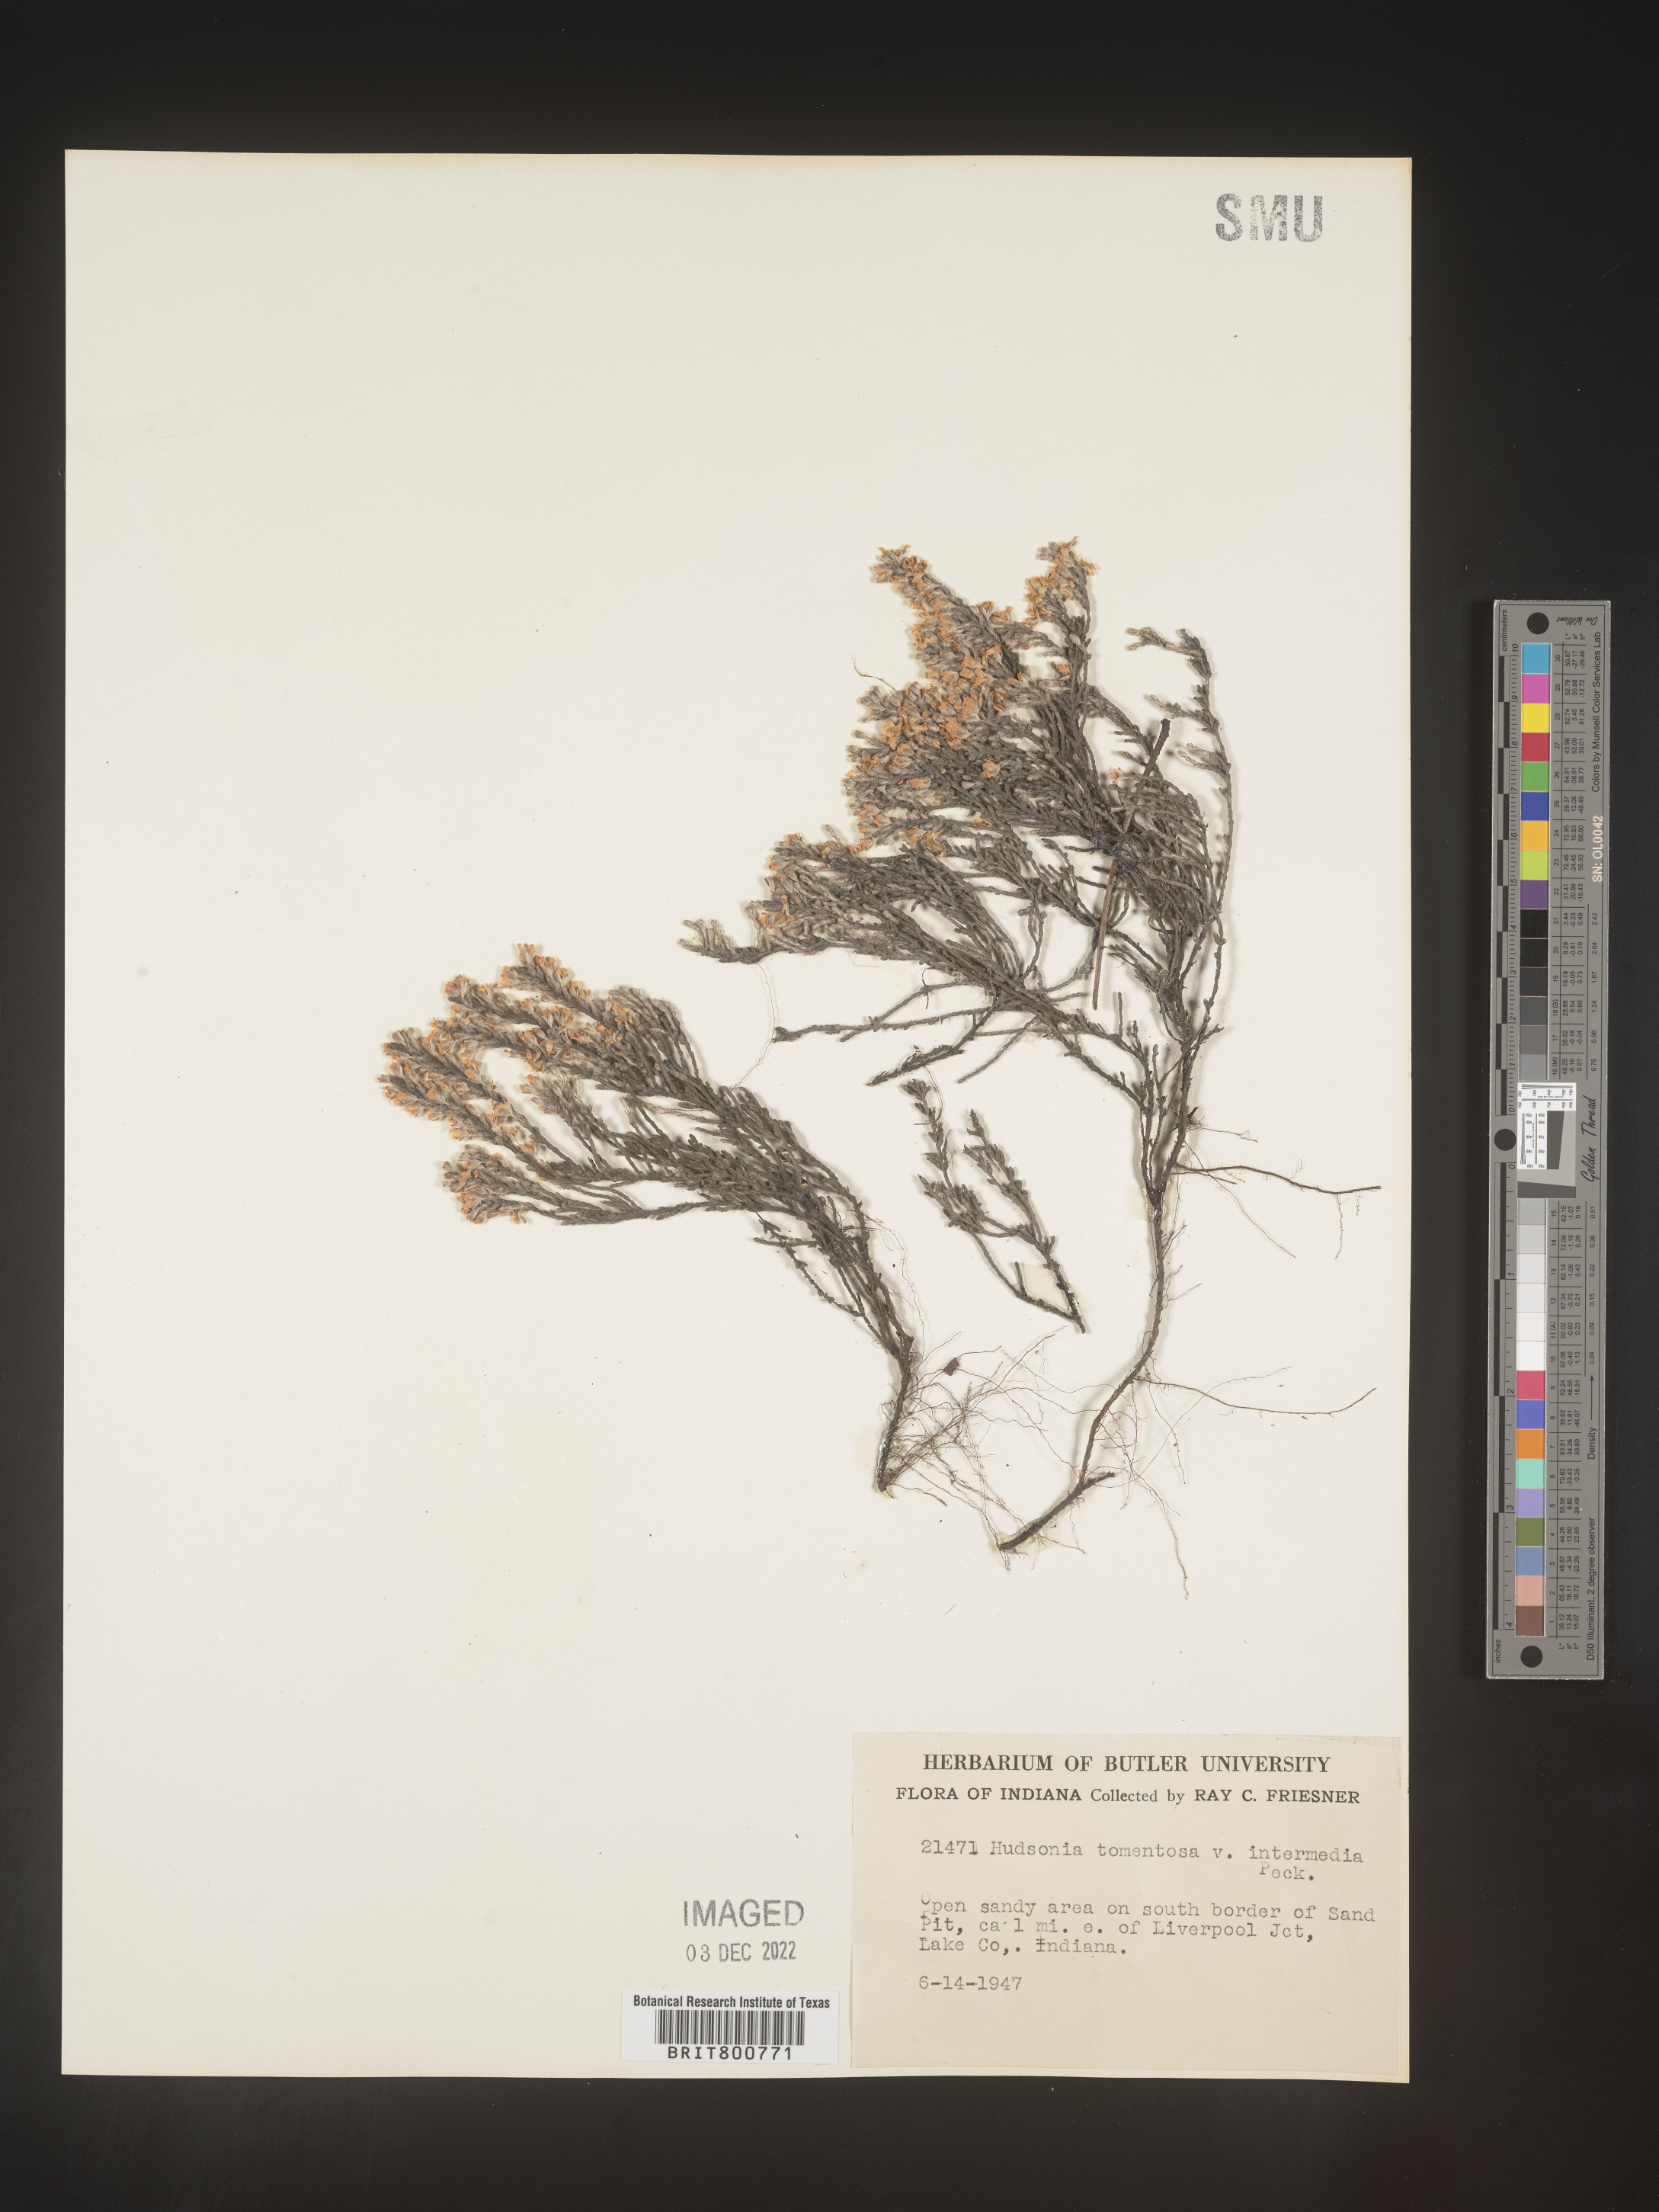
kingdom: Plantae
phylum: Tracheophyta
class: Magnoliopsida
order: Malvales
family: Cistaceae
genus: Hudsonia
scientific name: Hudsonia tomentosa
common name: Beach-heath
